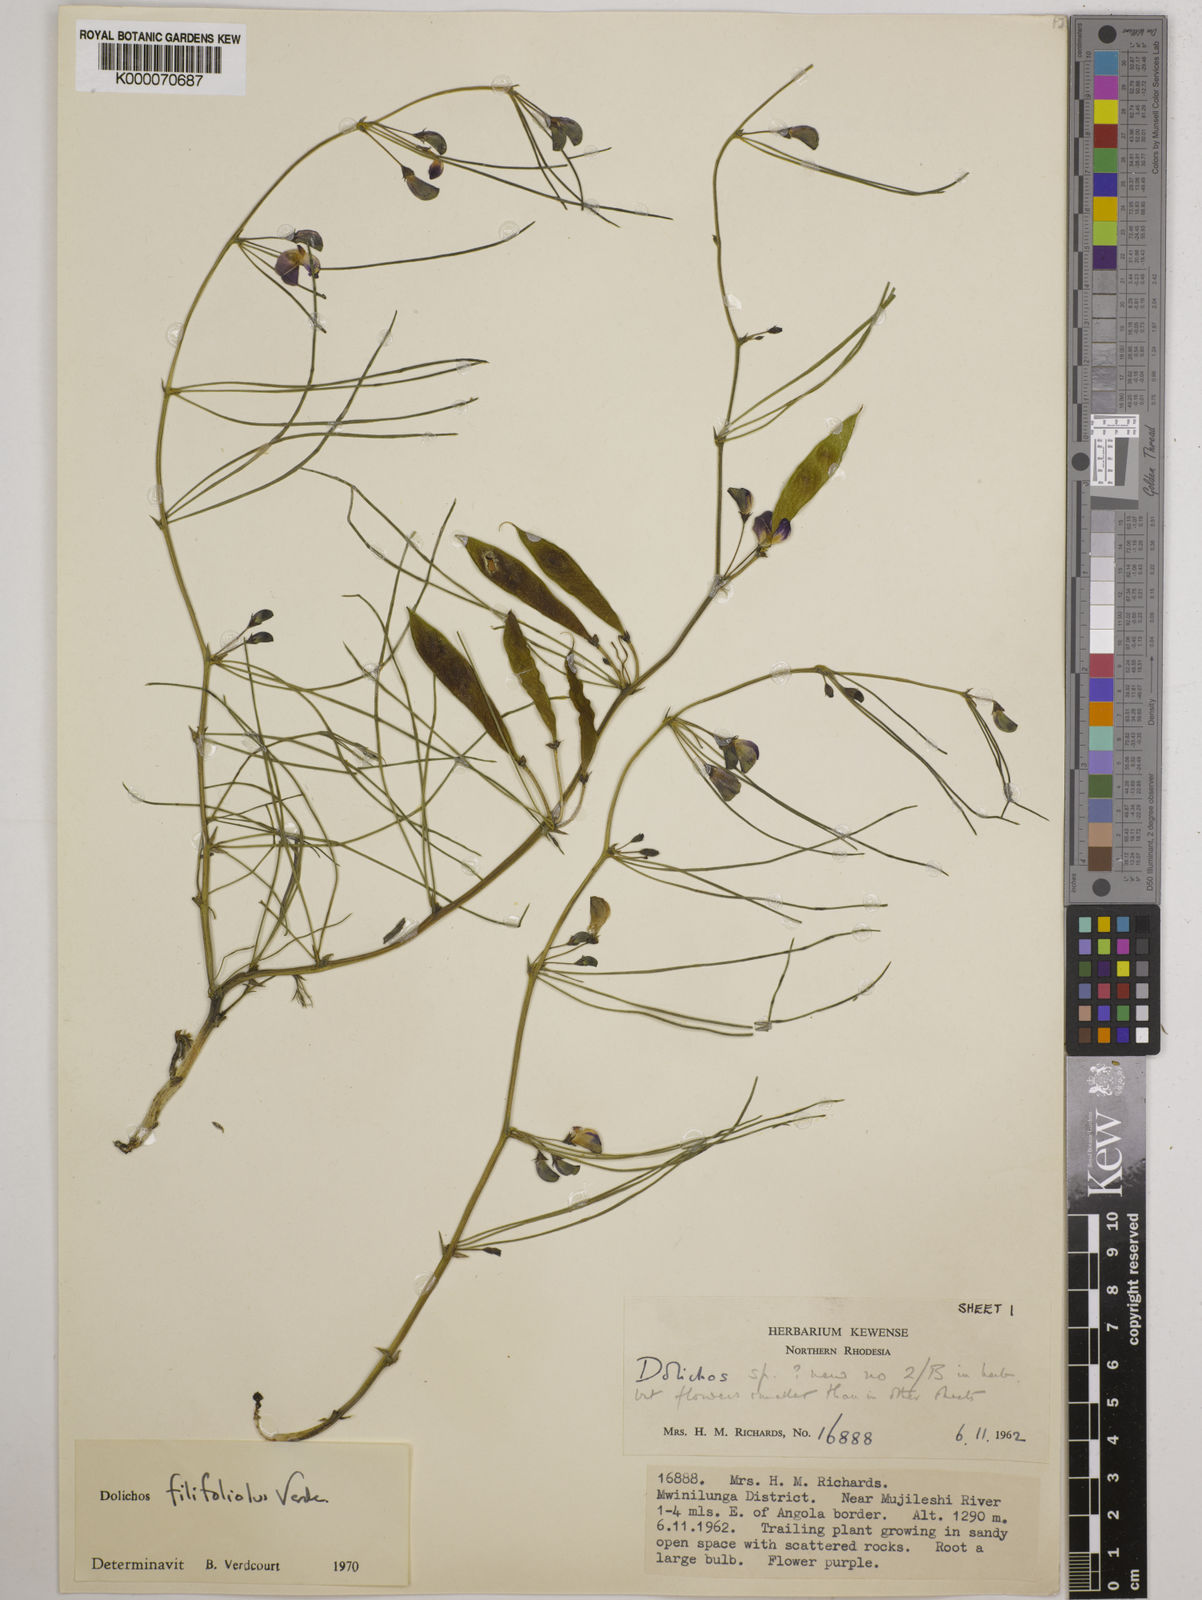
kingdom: Plantae
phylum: Tracheophyta
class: Magnoliopsida
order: Fabales
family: Fabaceae
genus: Dolichos
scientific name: Dolichos filifoliolus
